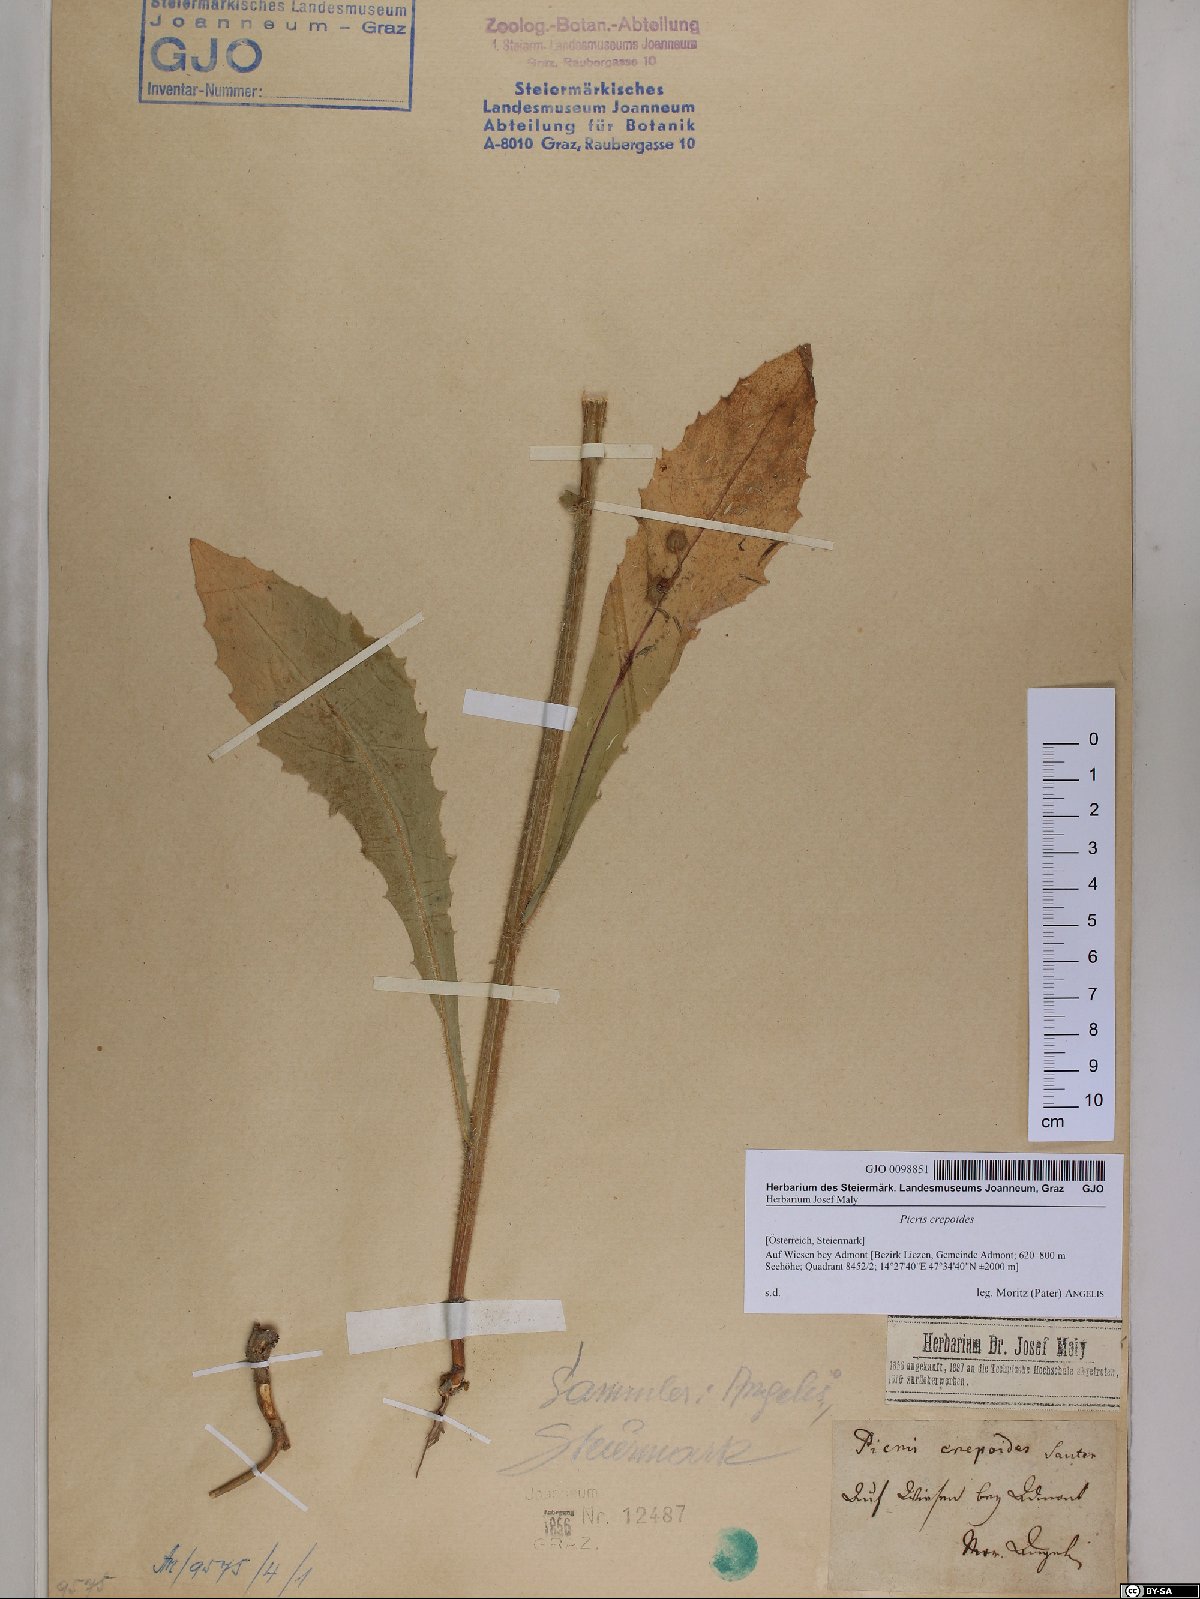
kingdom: Plantae
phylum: Tracheophyta
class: Magnoliopsida
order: Asterales
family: Asteraceae
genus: Picris
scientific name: Picris hieracioides
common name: Hawkweed oxtongue
